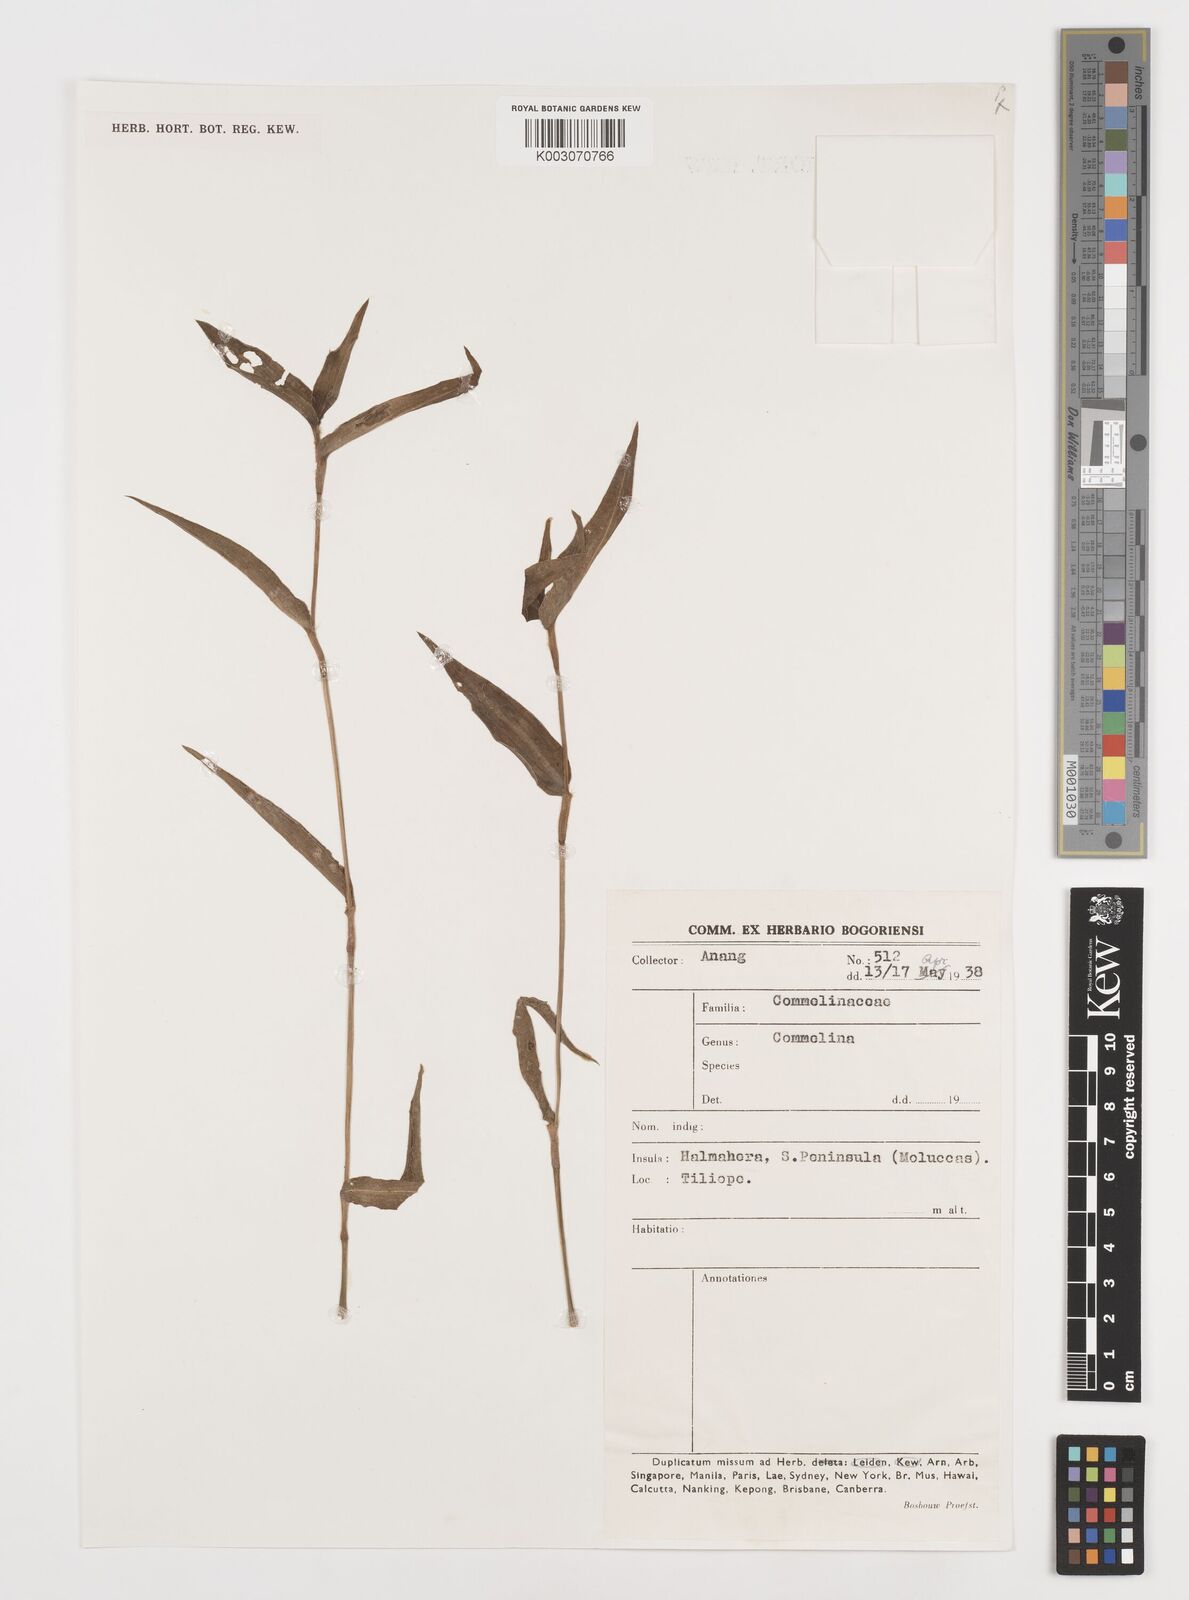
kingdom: Plantae
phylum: Tracheophyta
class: Liliopsida
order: Commelinales
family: Commelinaceae
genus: Commelina
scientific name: Commelina
